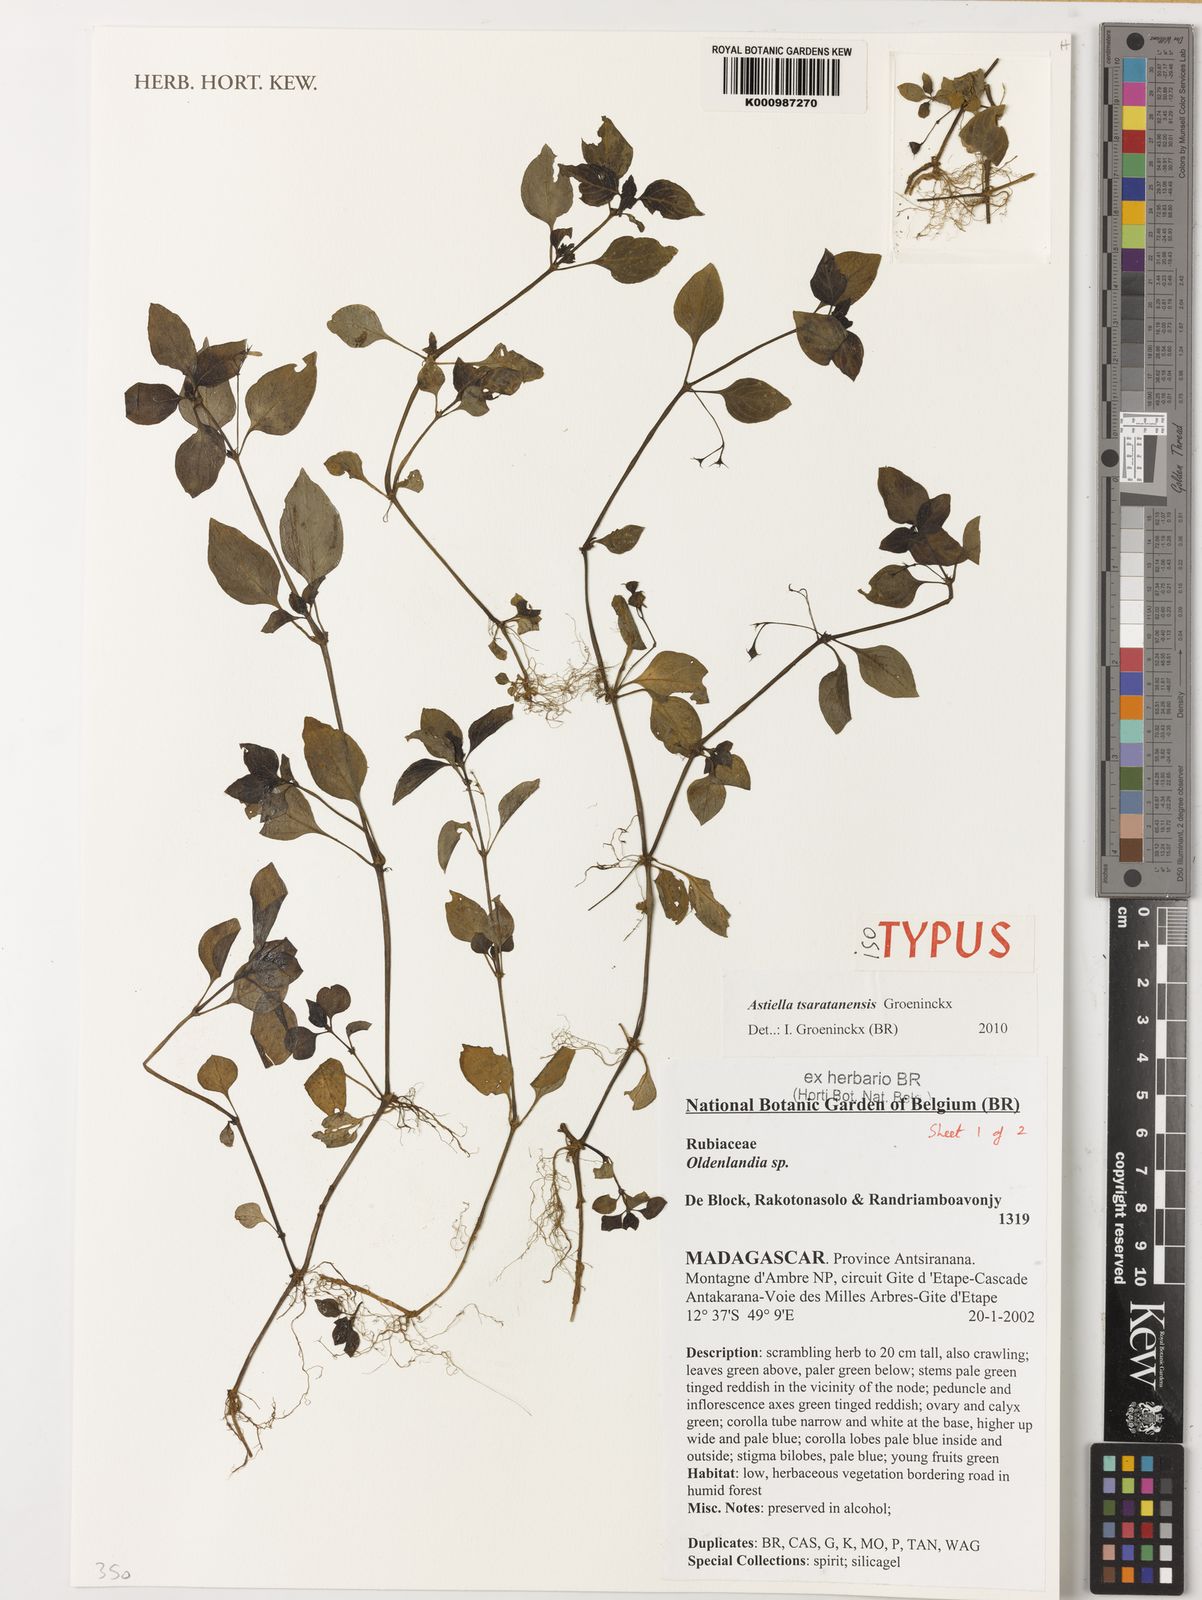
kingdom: Plantae
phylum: Tracheophyta
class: Magnoliopsida
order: Gentianales
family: Rubiaceae
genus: Astiella
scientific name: Astiella tsaratanensis
